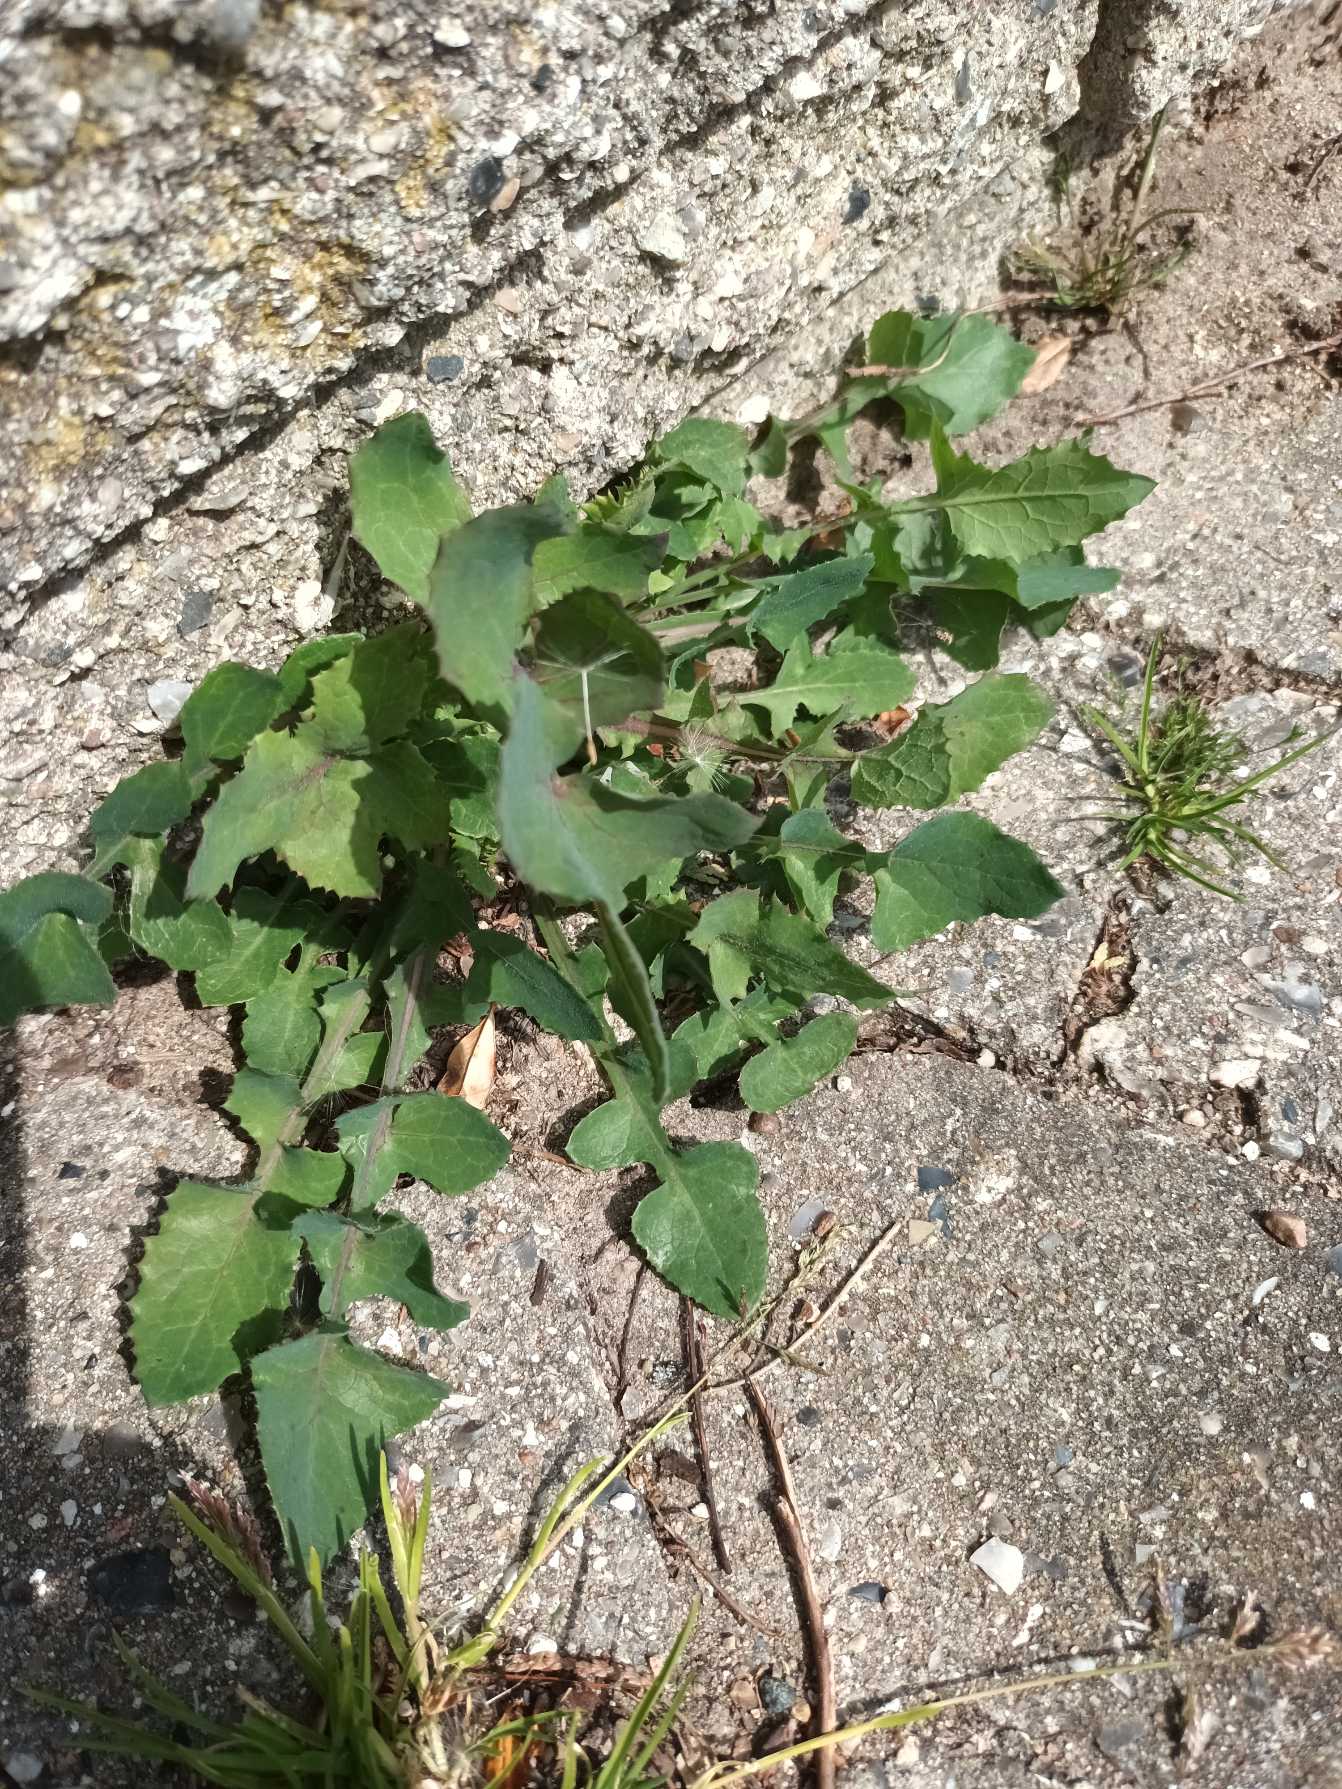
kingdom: Plantae
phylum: Tracheophyta
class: Magnoliopsida
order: Asterales
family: Asteraceae
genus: Sonchus
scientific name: Sonchus oleraceus
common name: Almindelig svinemælk
